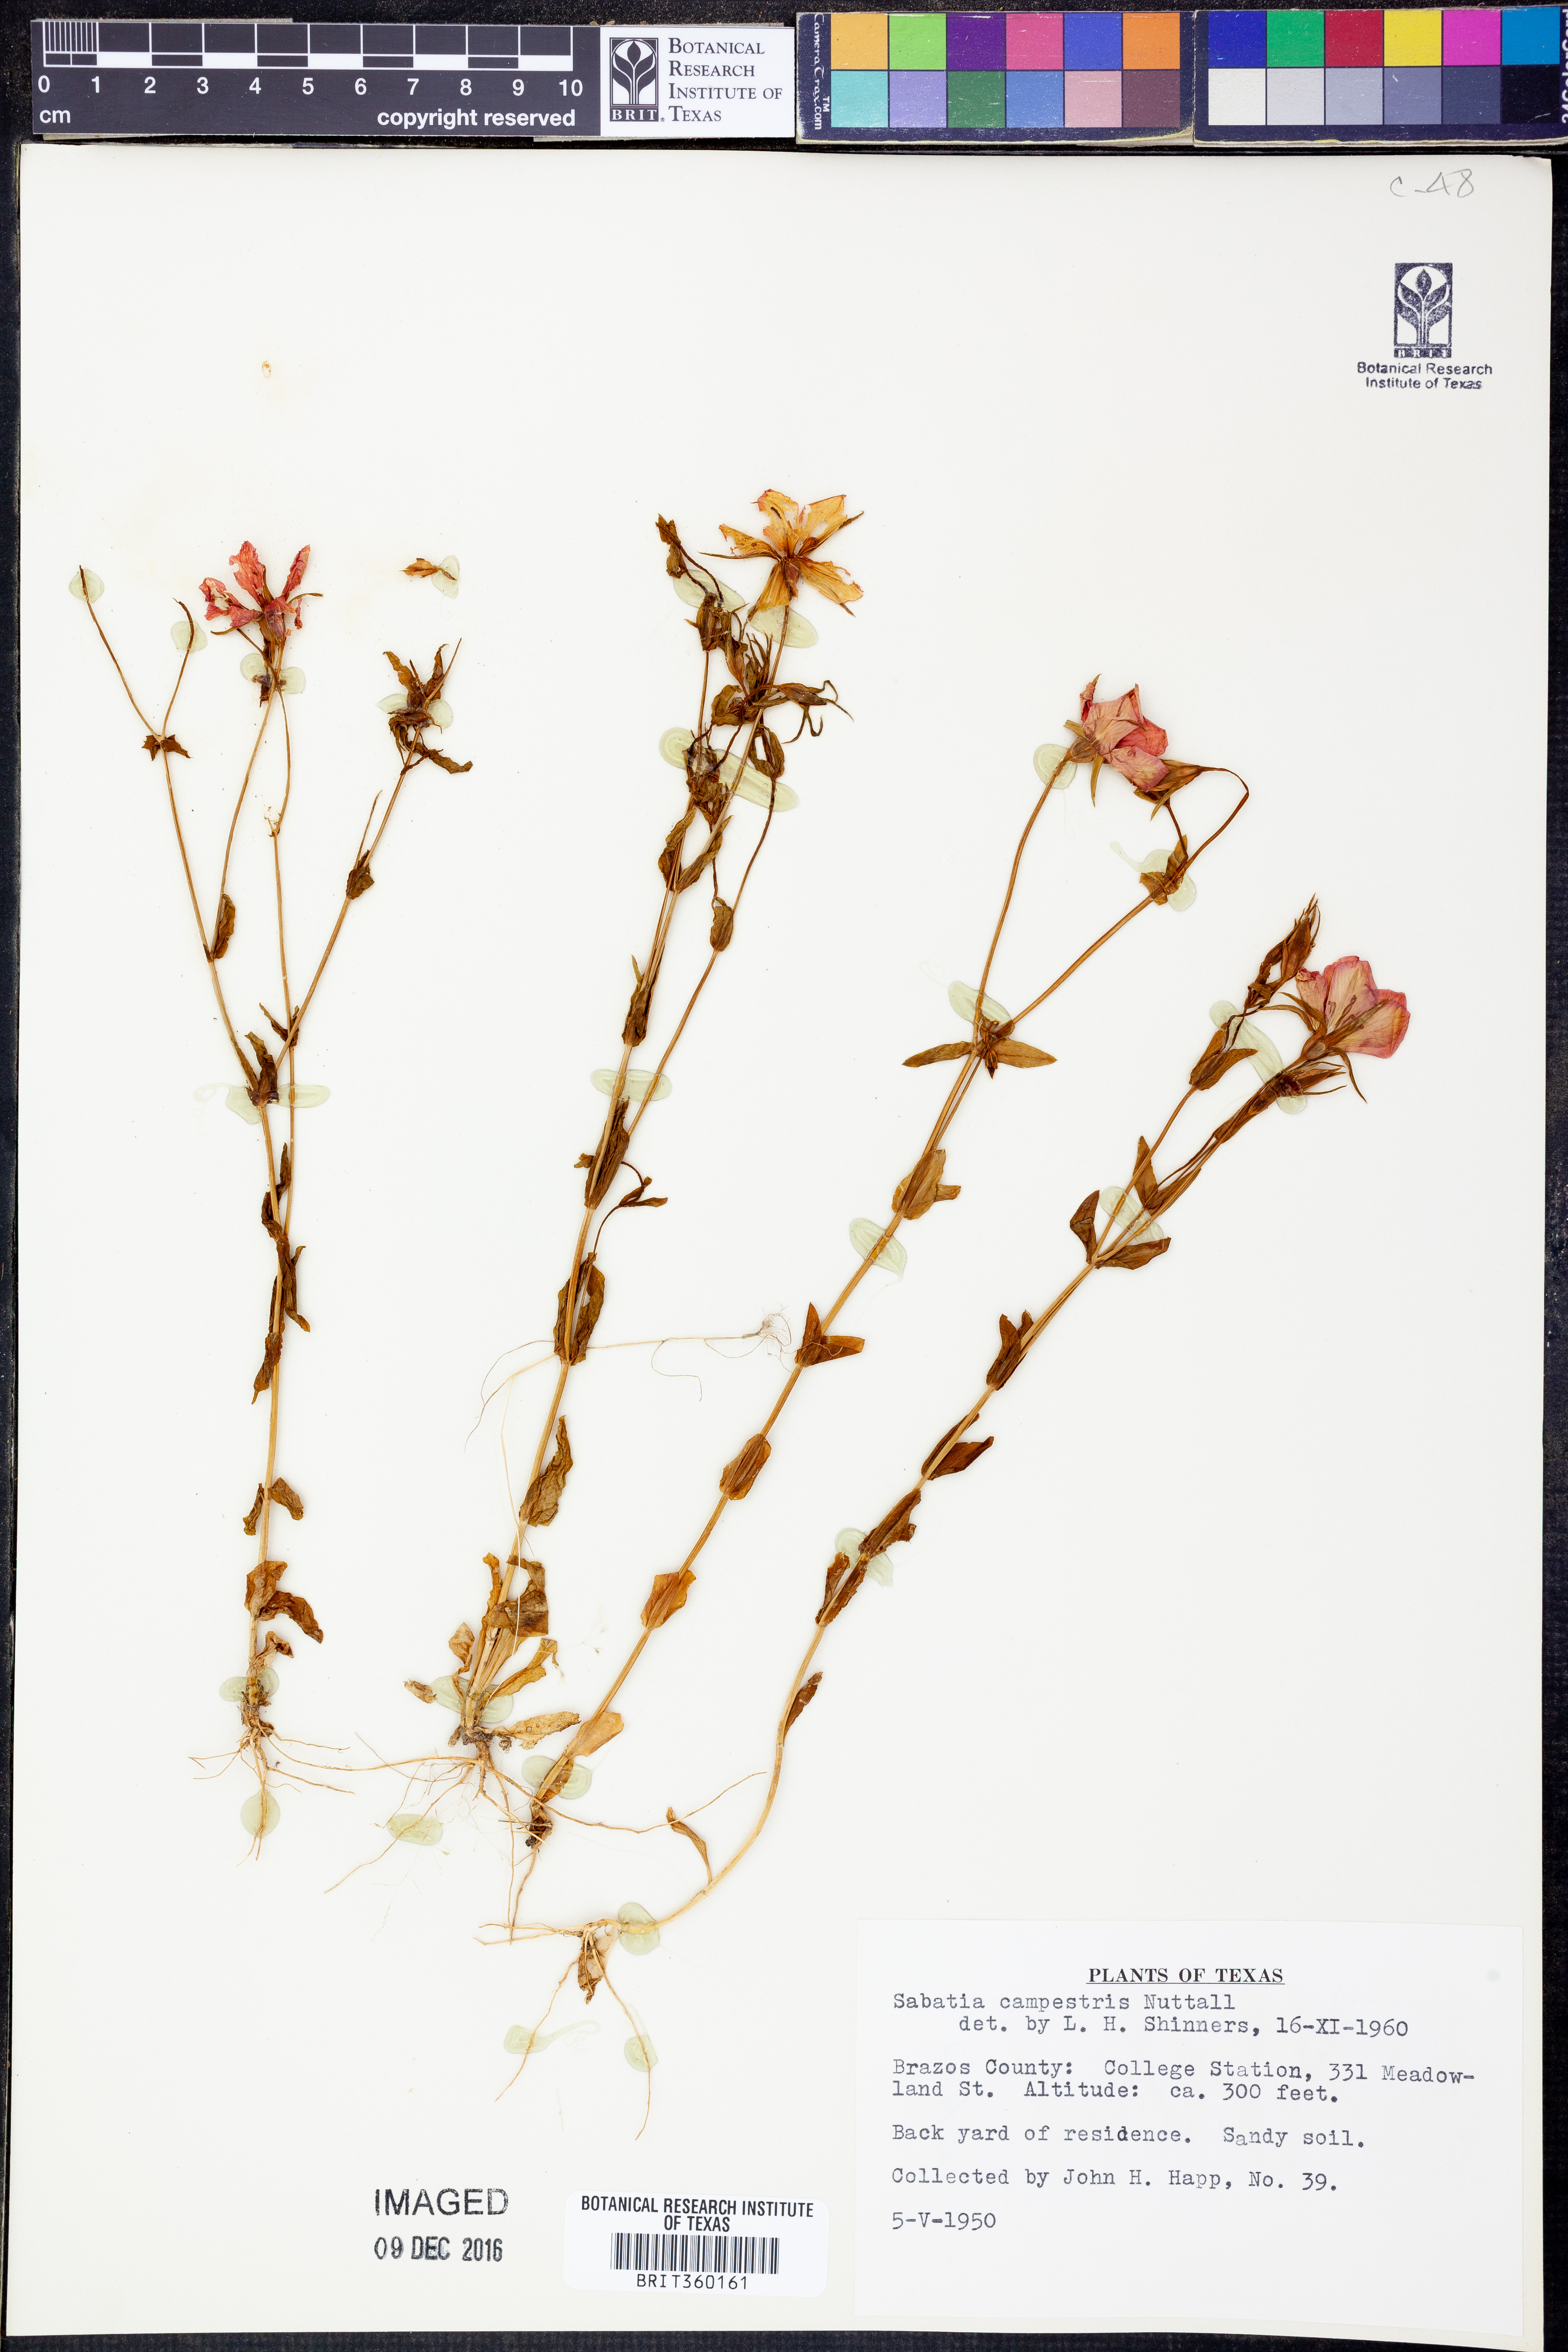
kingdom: Plantae
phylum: Tracheophyta
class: Magnoliopsida
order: Gentianales
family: Gentianaceae
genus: Sabatia
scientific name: Sabatia campestris
